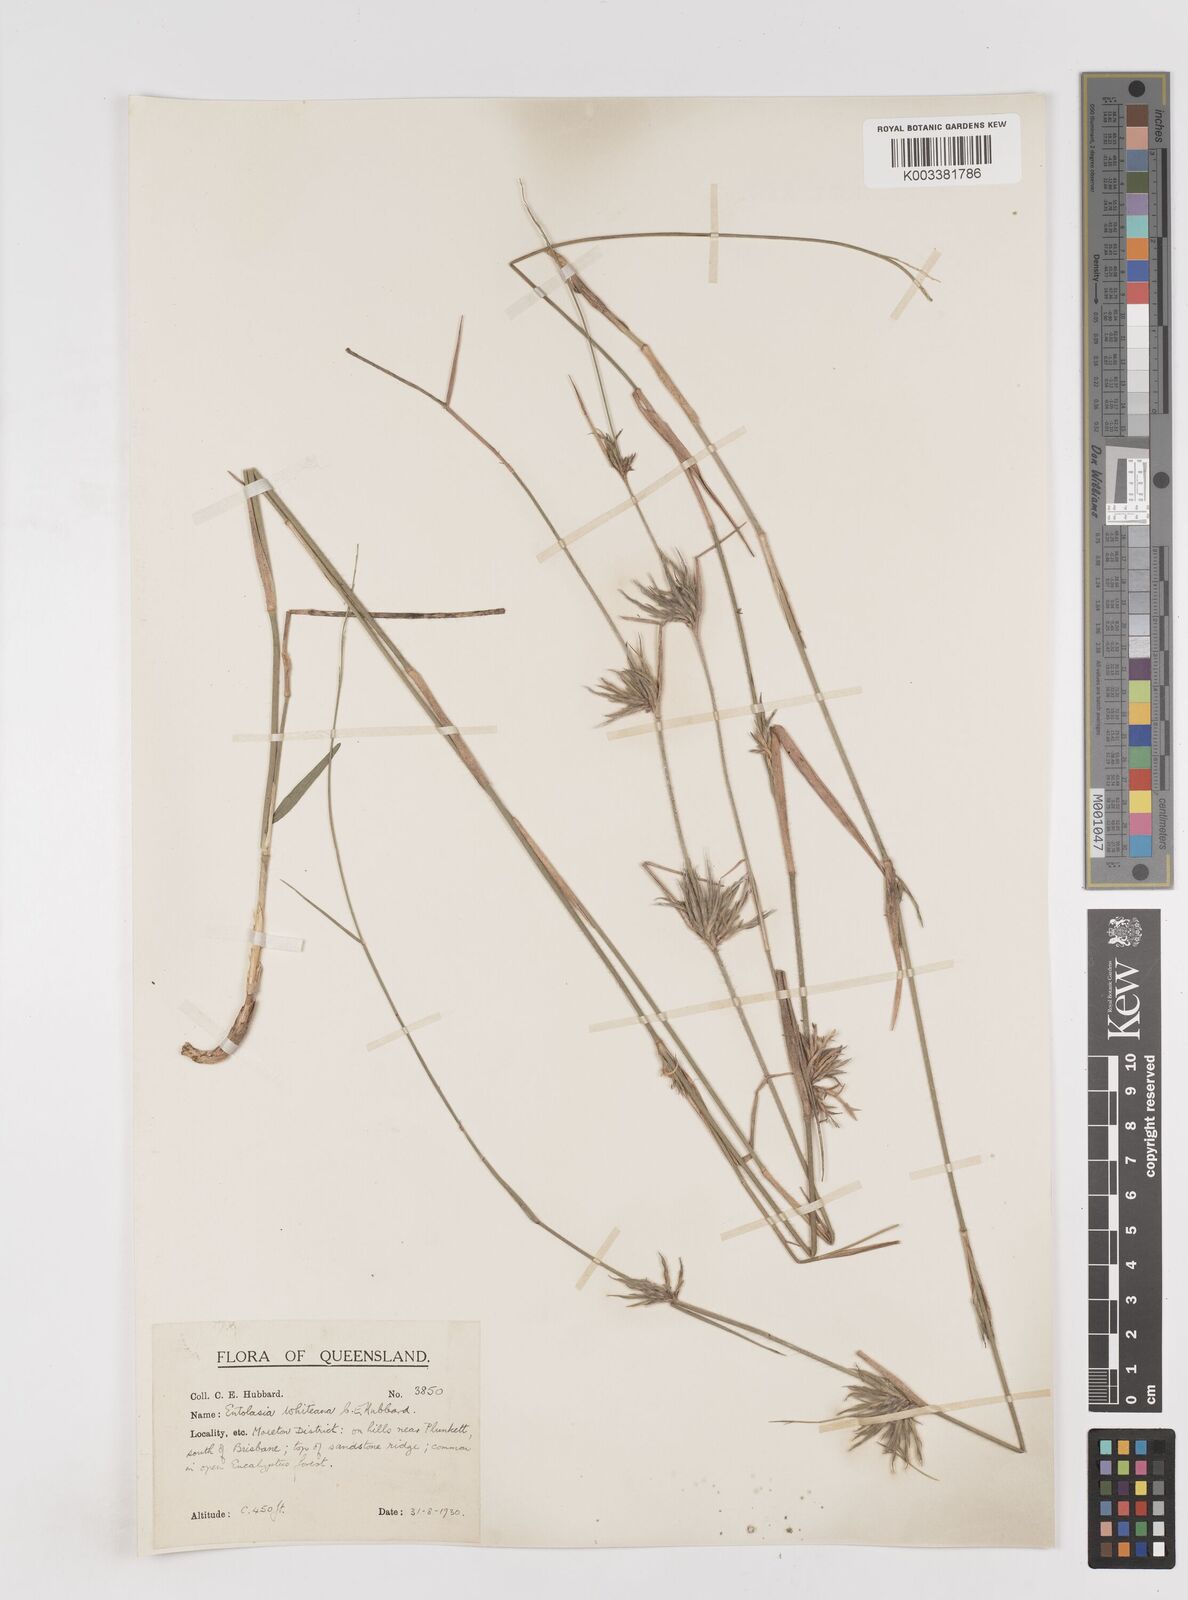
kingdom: Plantae
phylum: Tracheophyta
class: Liliopsida
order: Poales
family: Poaceae
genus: Entolasia
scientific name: Entolasia whiteana
